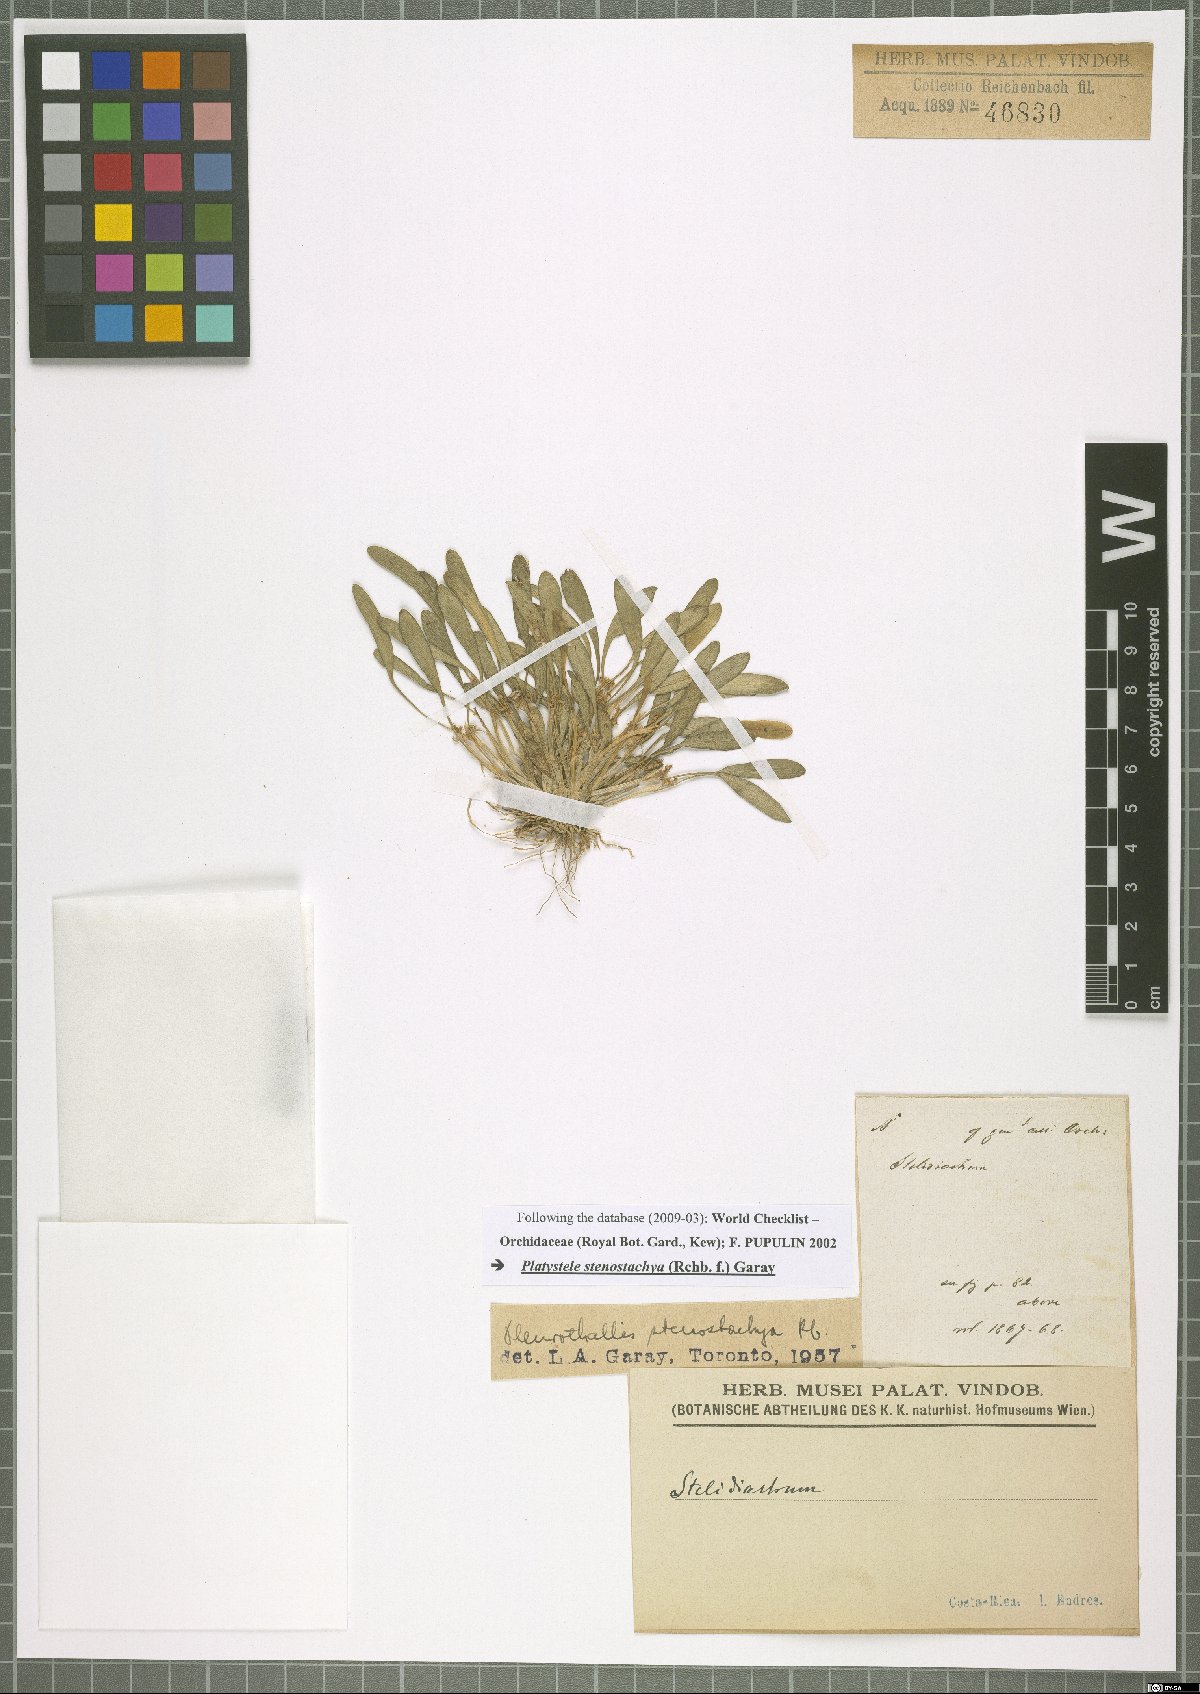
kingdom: Plantae
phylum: Tracheophyta
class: Liliopsida
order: Asparagales
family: Orchidaceae
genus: Platystele
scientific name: Platystele stenostachya
